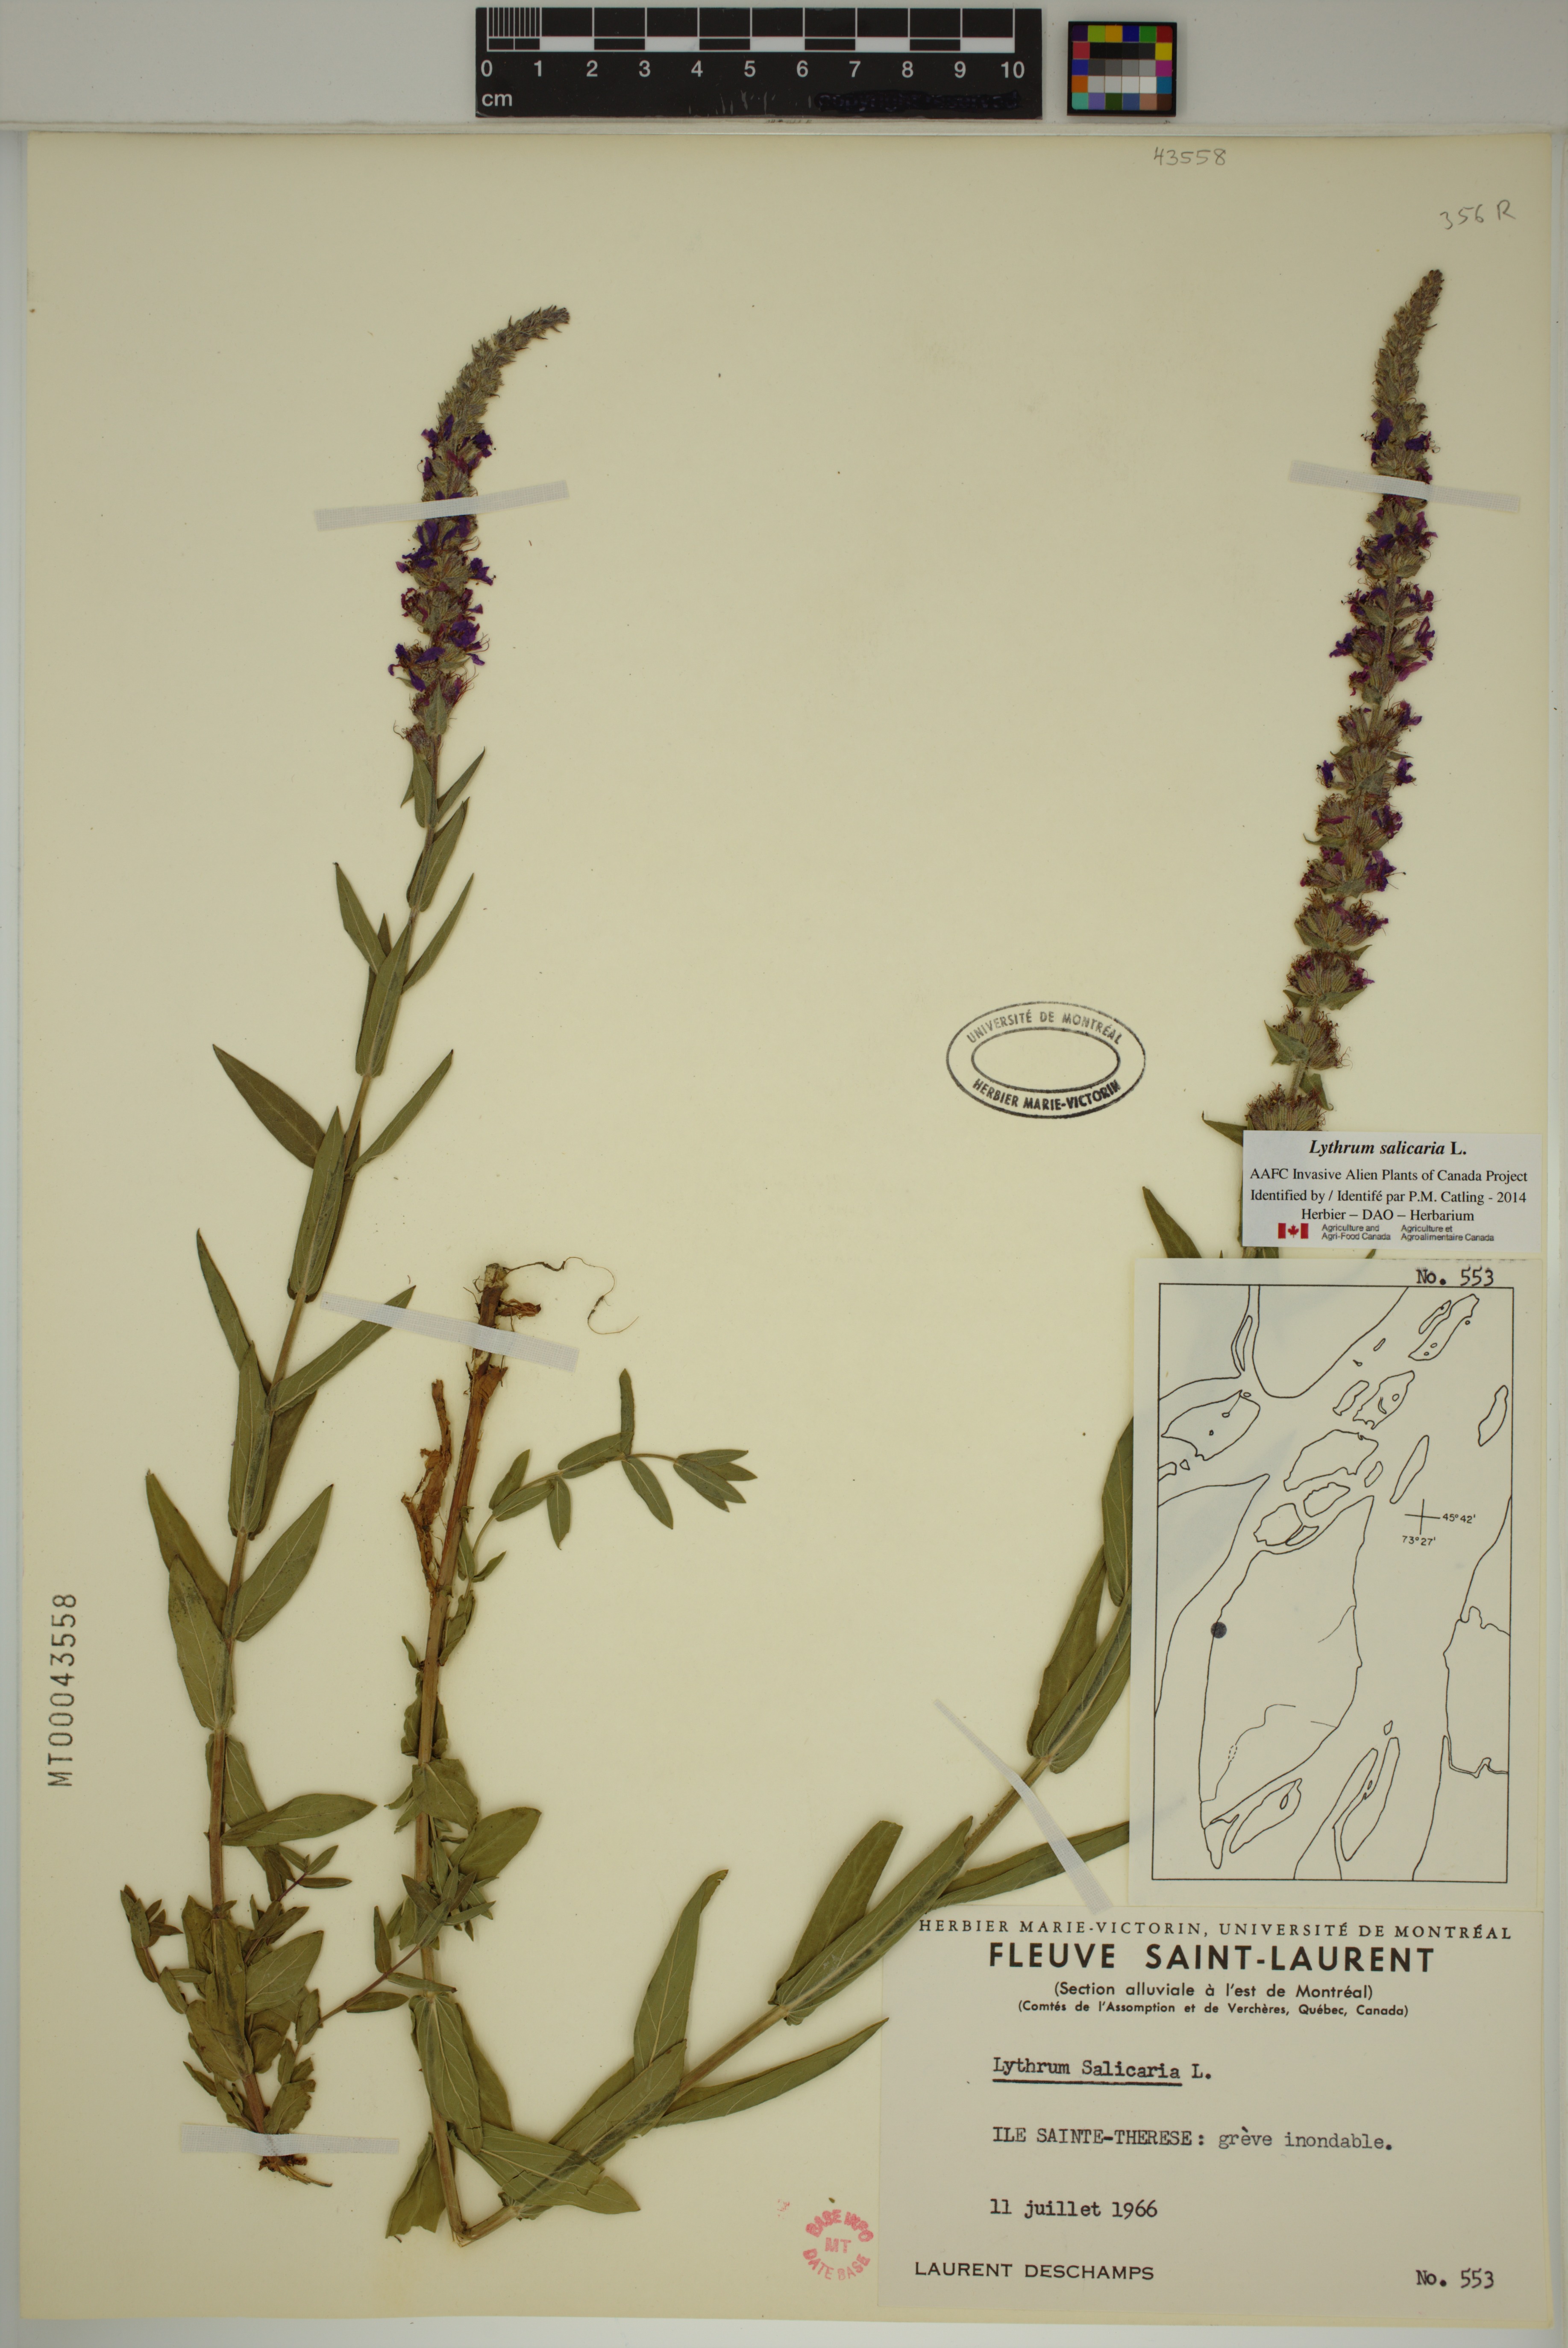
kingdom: Plantae
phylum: Tracheophyta
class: Magnoliopsida
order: Myrtales
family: Lythraceae
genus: Lythrum
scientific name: Lythrum salicaria
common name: Purple loosestrife
